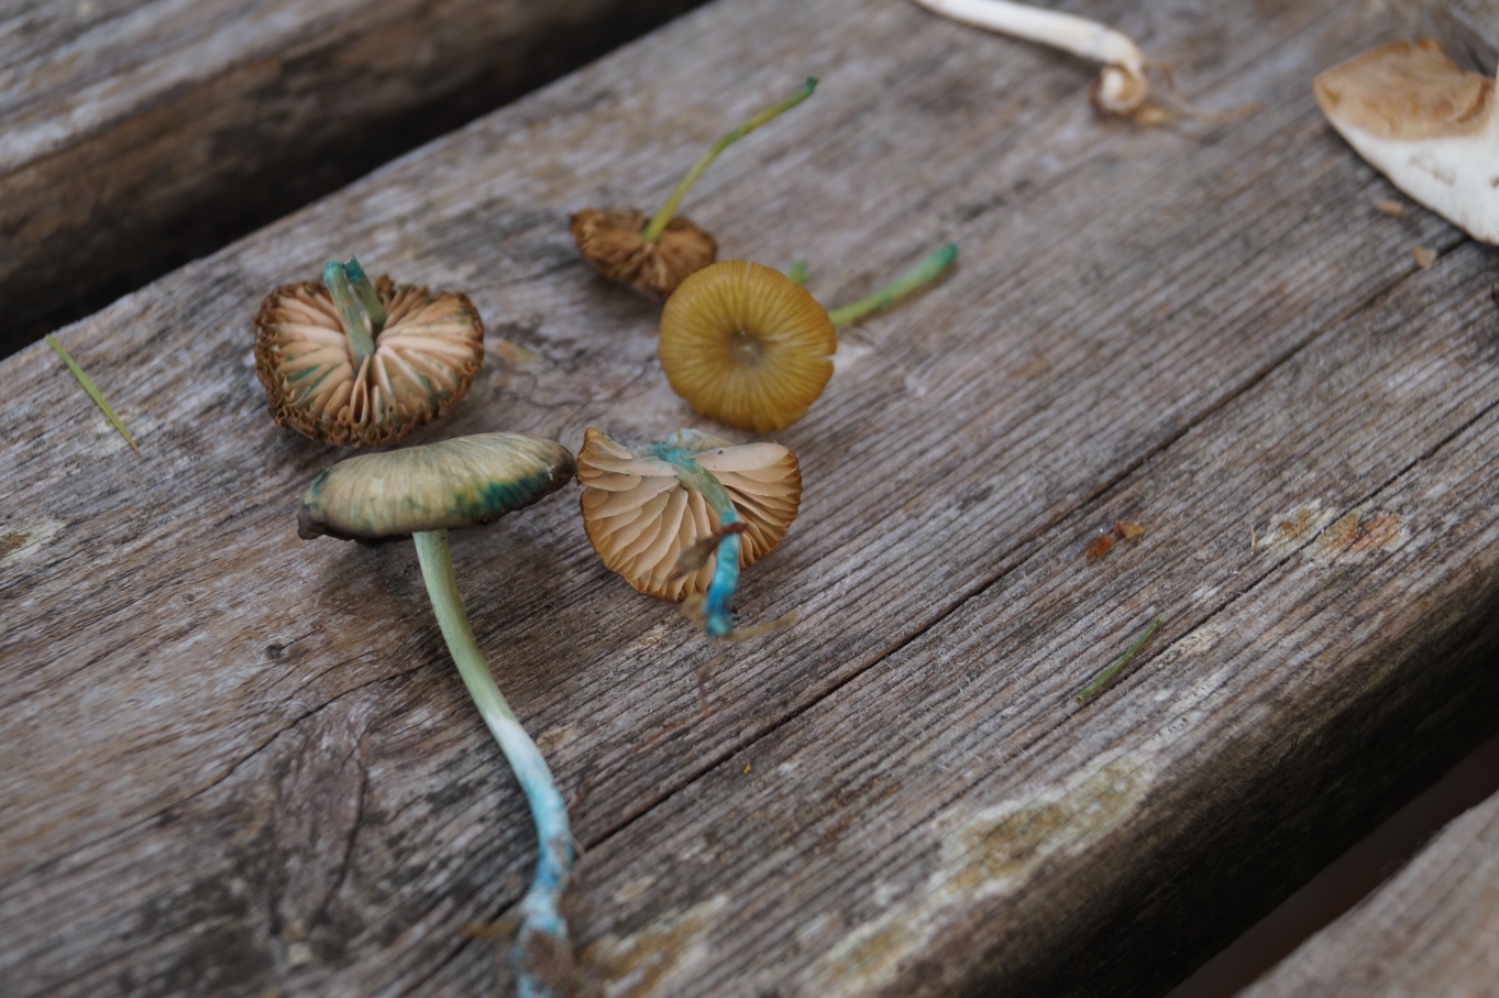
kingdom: Fungi
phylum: Basidiomycota
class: Agaricomycetes
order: Agaricales
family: Entolomataceae
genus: Entoloma
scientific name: Entoloma incanum
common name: grøngul rødblad
